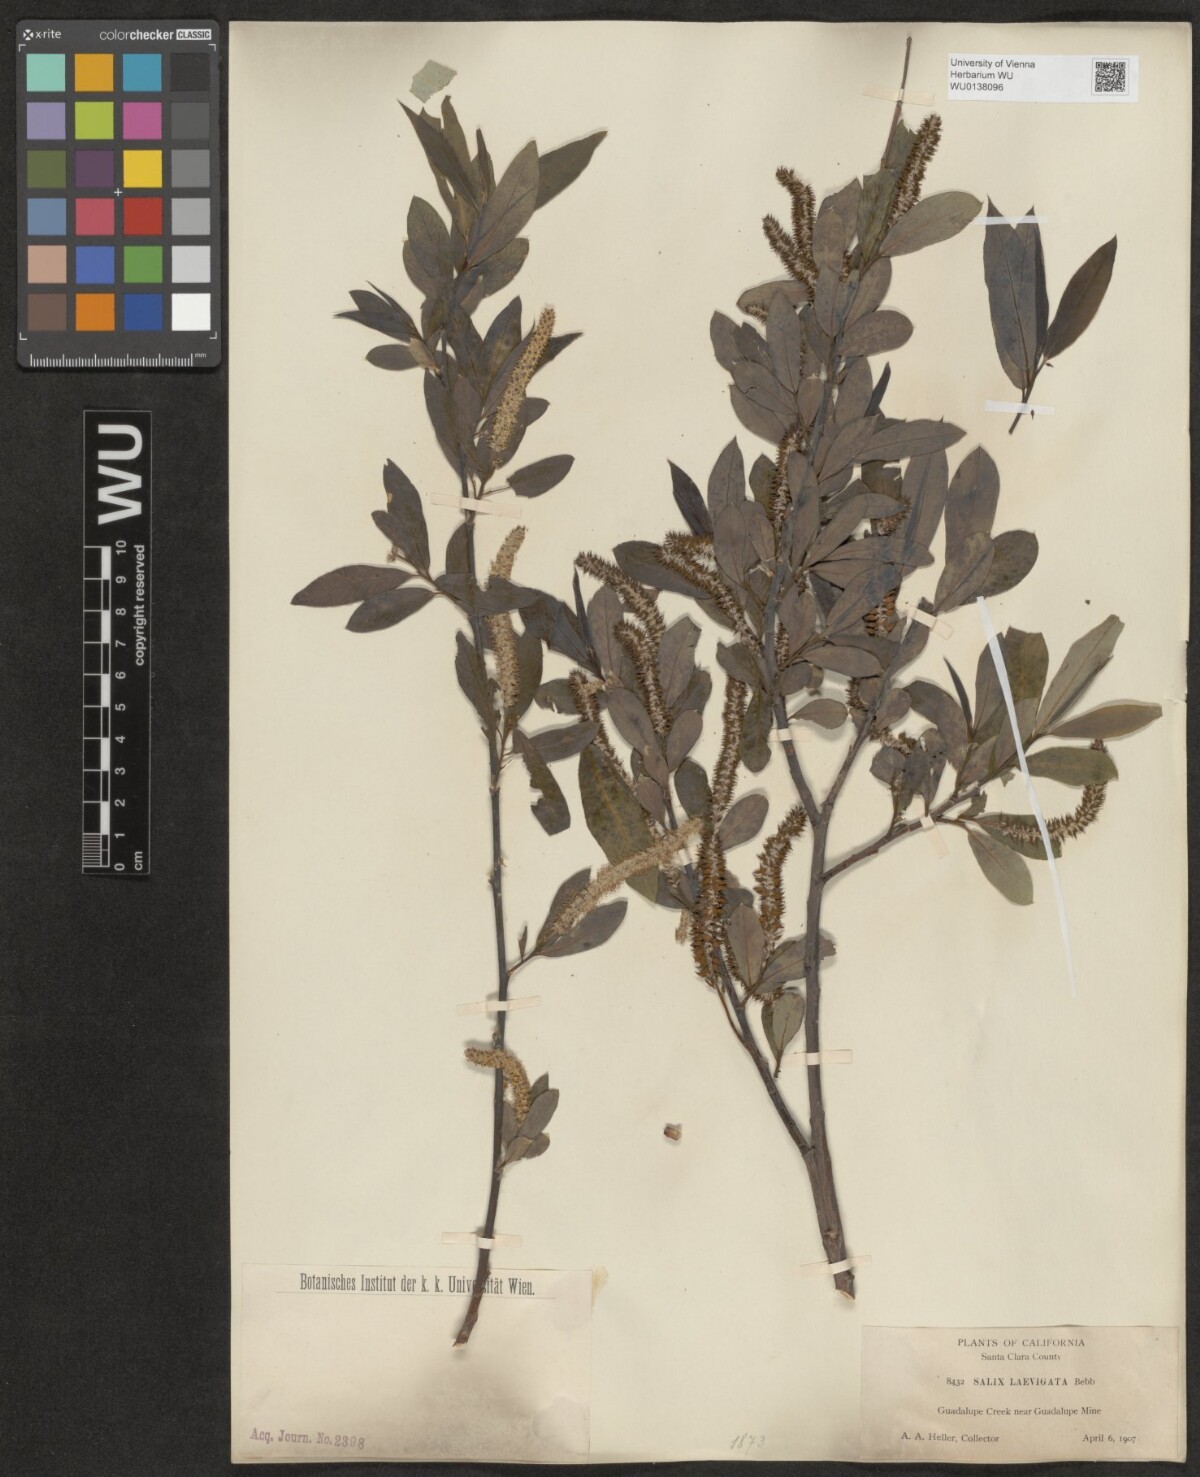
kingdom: Plantae
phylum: Tracheophyta
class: Magnoliopsida
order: Malpighiales
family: Salicaceae
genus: Salix
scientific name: Salix laevigata
